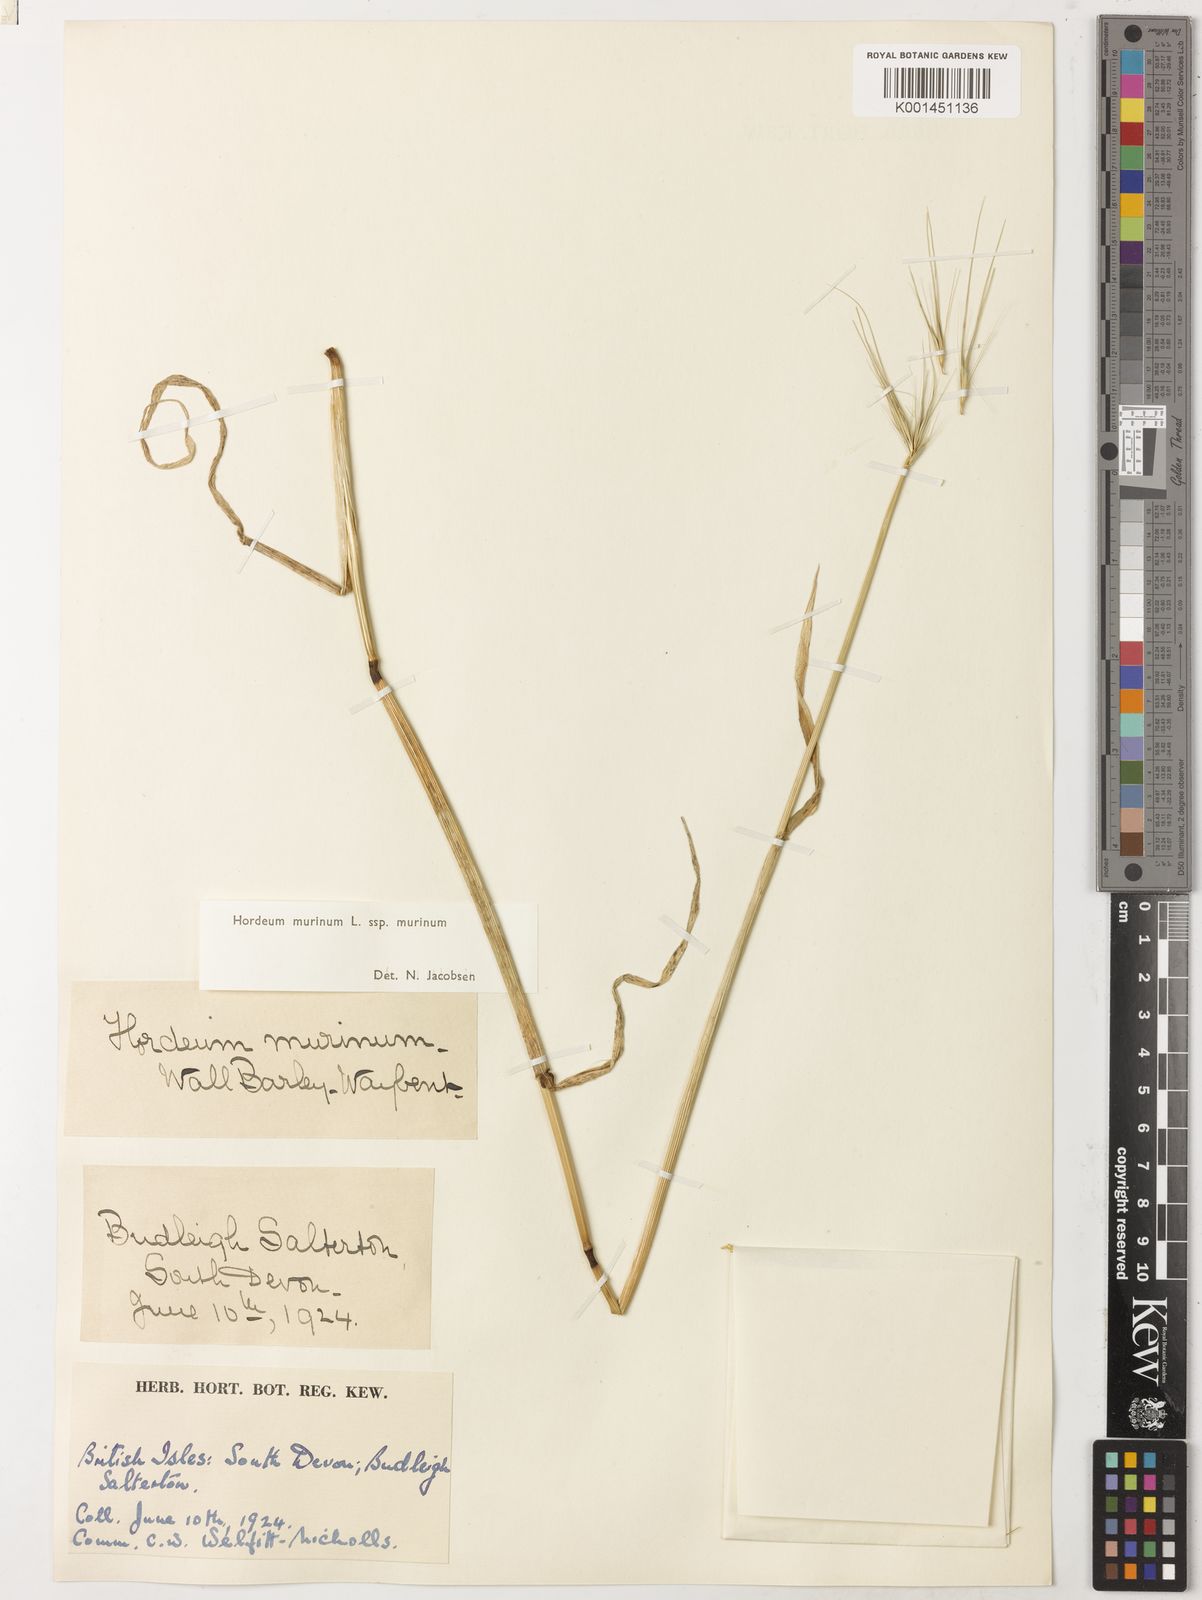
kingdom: Plantae
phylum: Tracheophyta
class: Liliopsida
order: Poales
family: Poaceae
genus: Hordeum
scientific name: Hordeum murinum
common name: Wall barley
